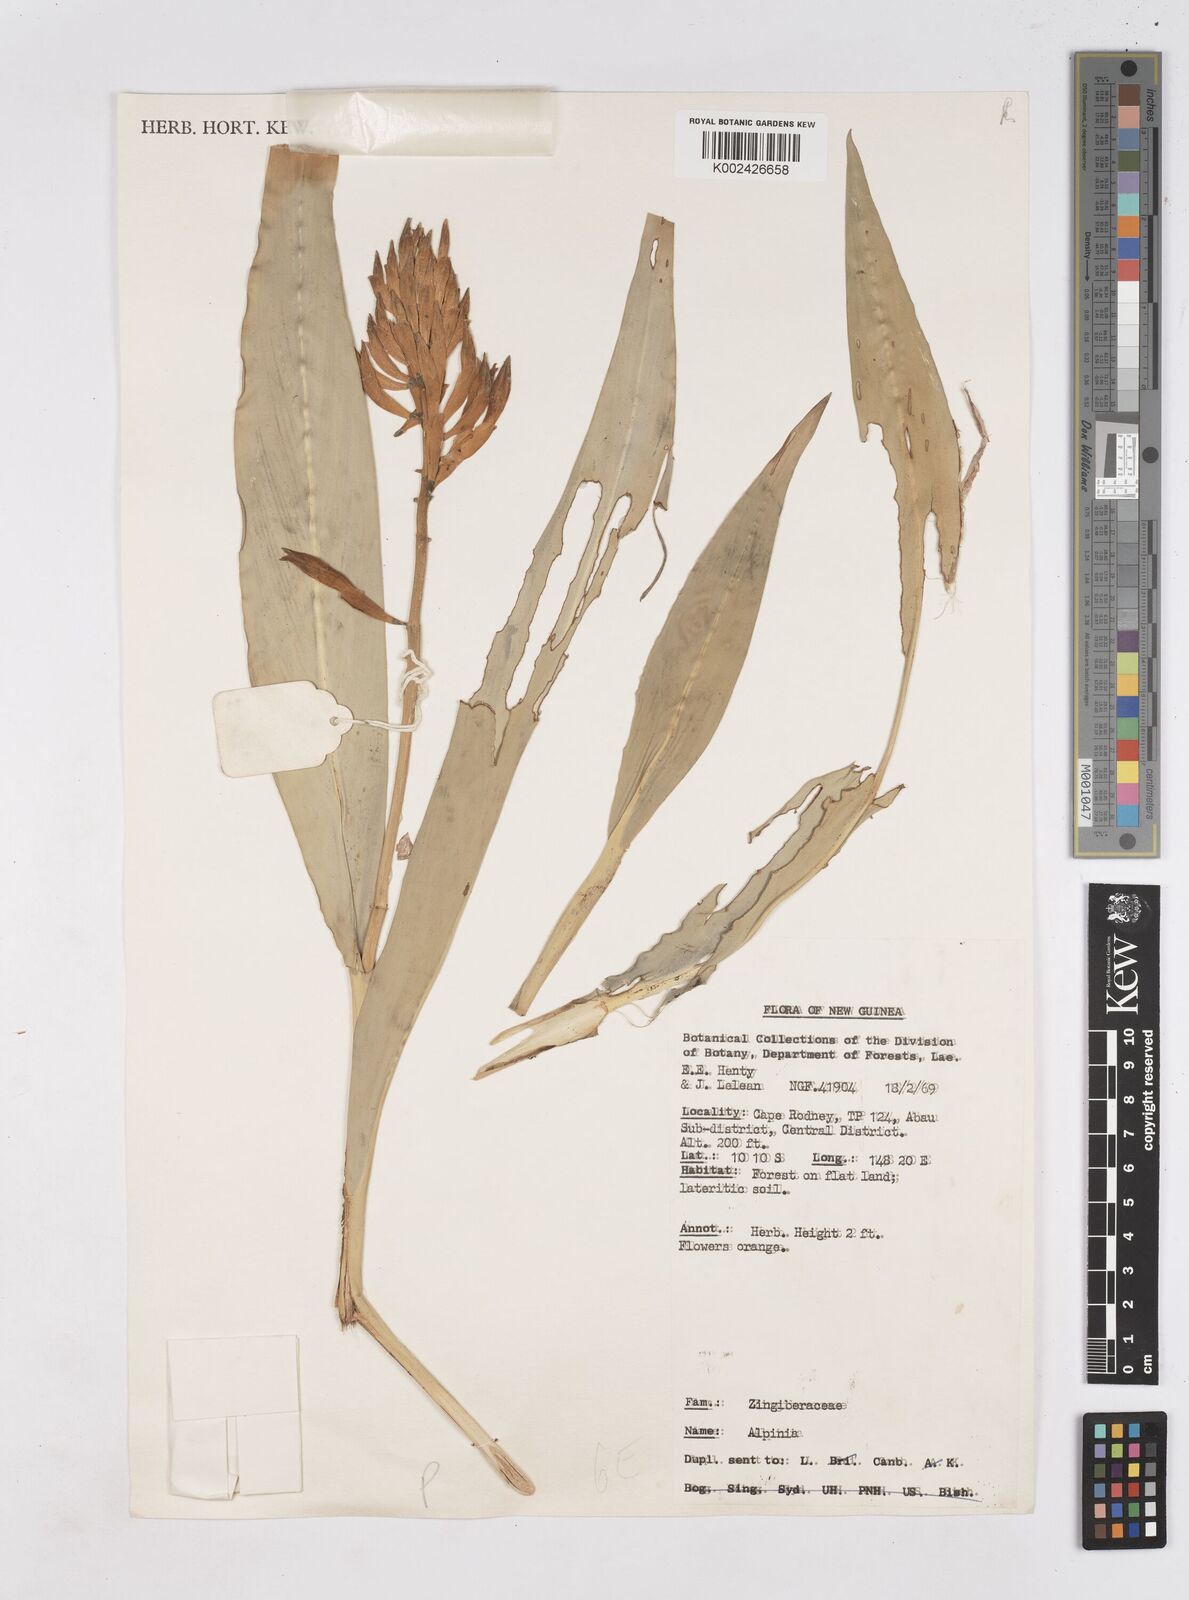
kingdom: Plantae
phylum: Tracheophyta
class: Liliopsida
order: Zingiberales
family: Zingiberaceae
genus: Riedelia
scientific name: Riedelia
